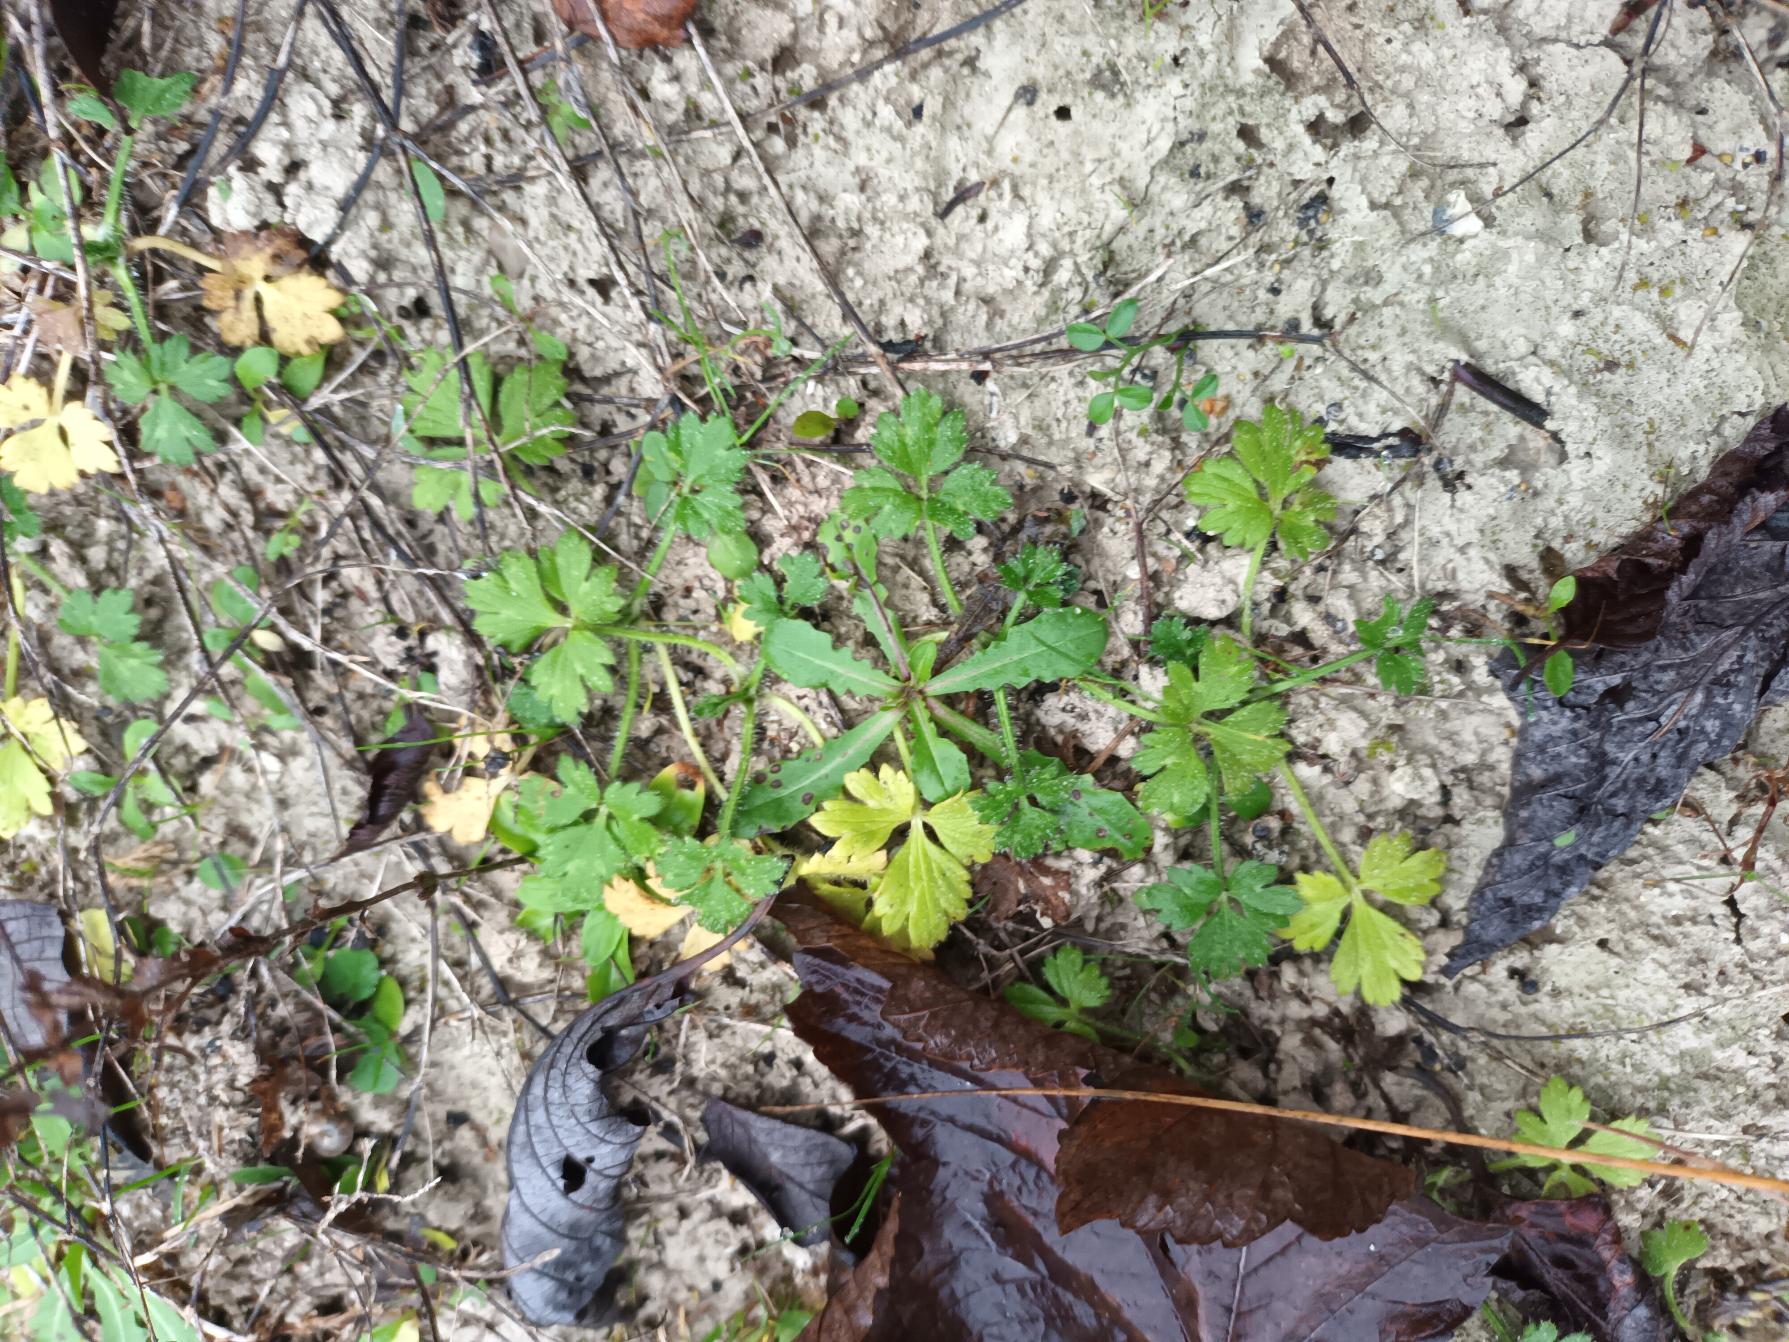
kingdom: Plantae
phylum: Tracheophyta
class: Magnoliopsida
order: Ranunculales
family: Ranunculaceae
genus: Ranunculus
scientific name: Ranunculus repens
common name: Lav ranunkel
